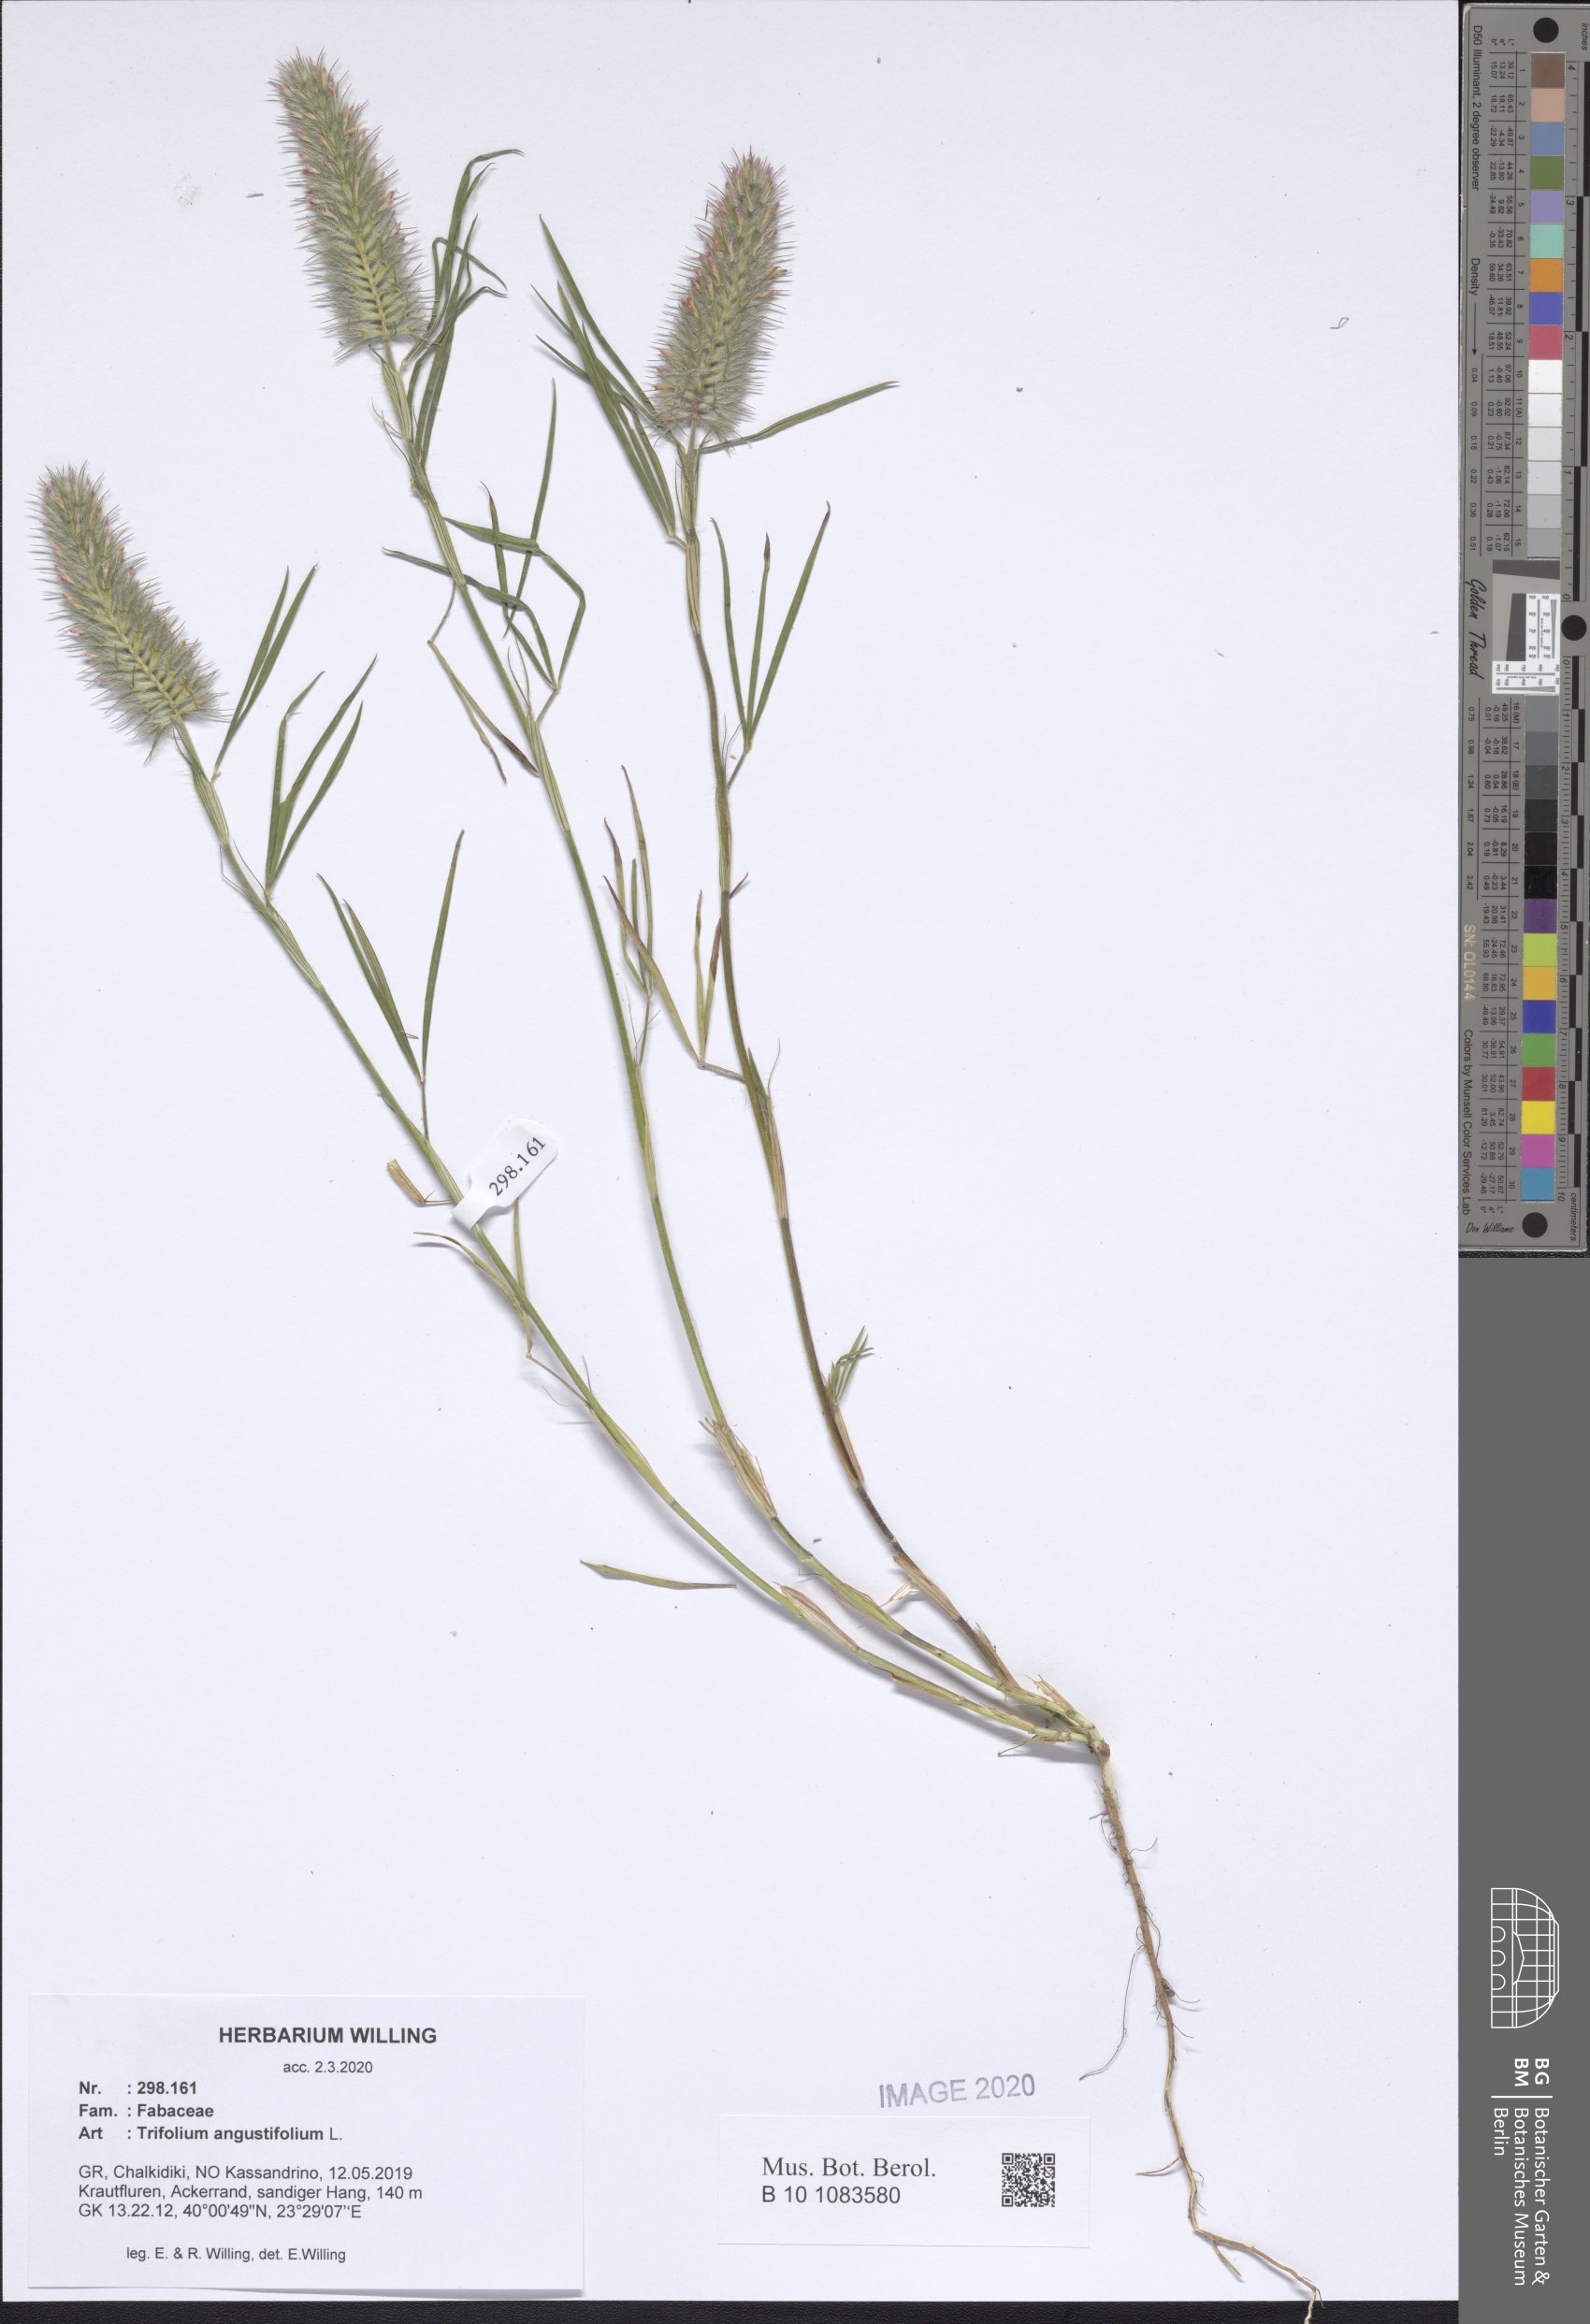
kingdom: Plantae
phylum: Tracheophyta
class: Magnoliopsida
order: Fabales
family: Fabaceae
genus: Trifolium
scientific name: Trifolium angustifolium
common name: Narrow clover
